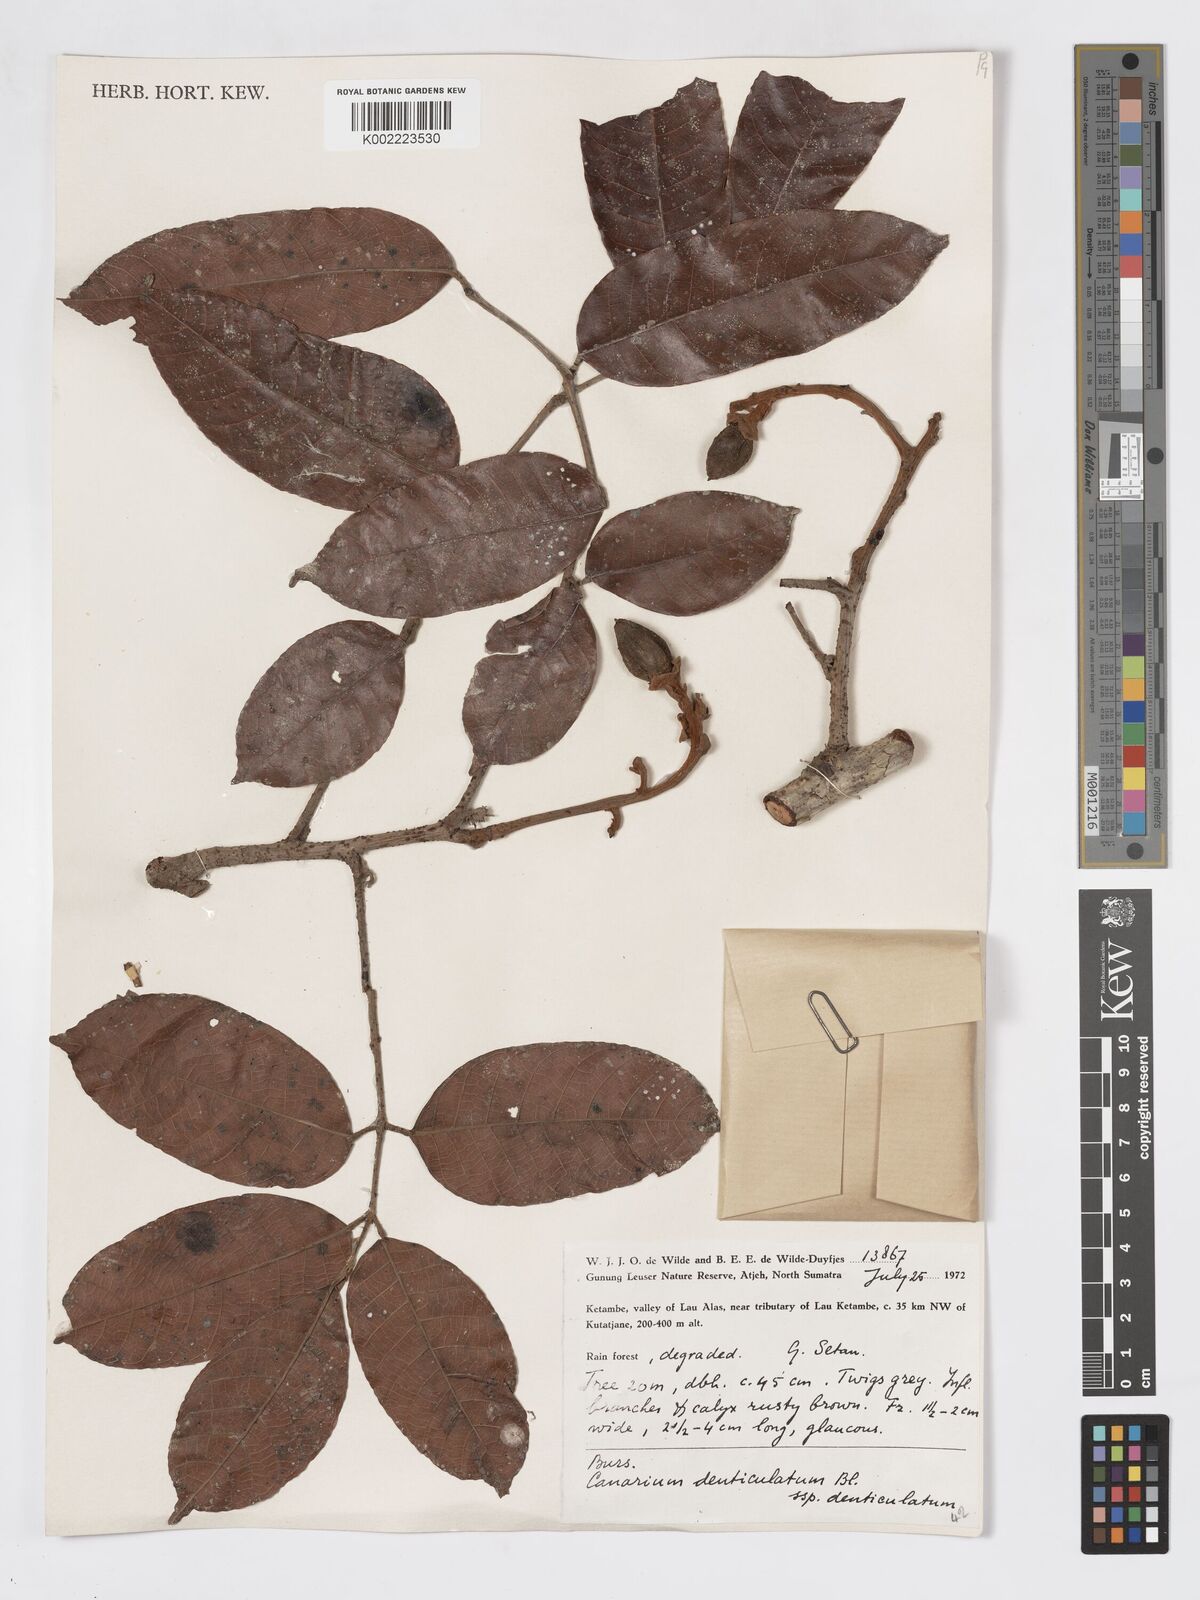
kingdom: Plantae
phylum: Tracheophyta
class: Magnoliopsida
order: Sapindales
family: Burseraceae
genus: Canarium
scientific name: Canarium denticulatum
